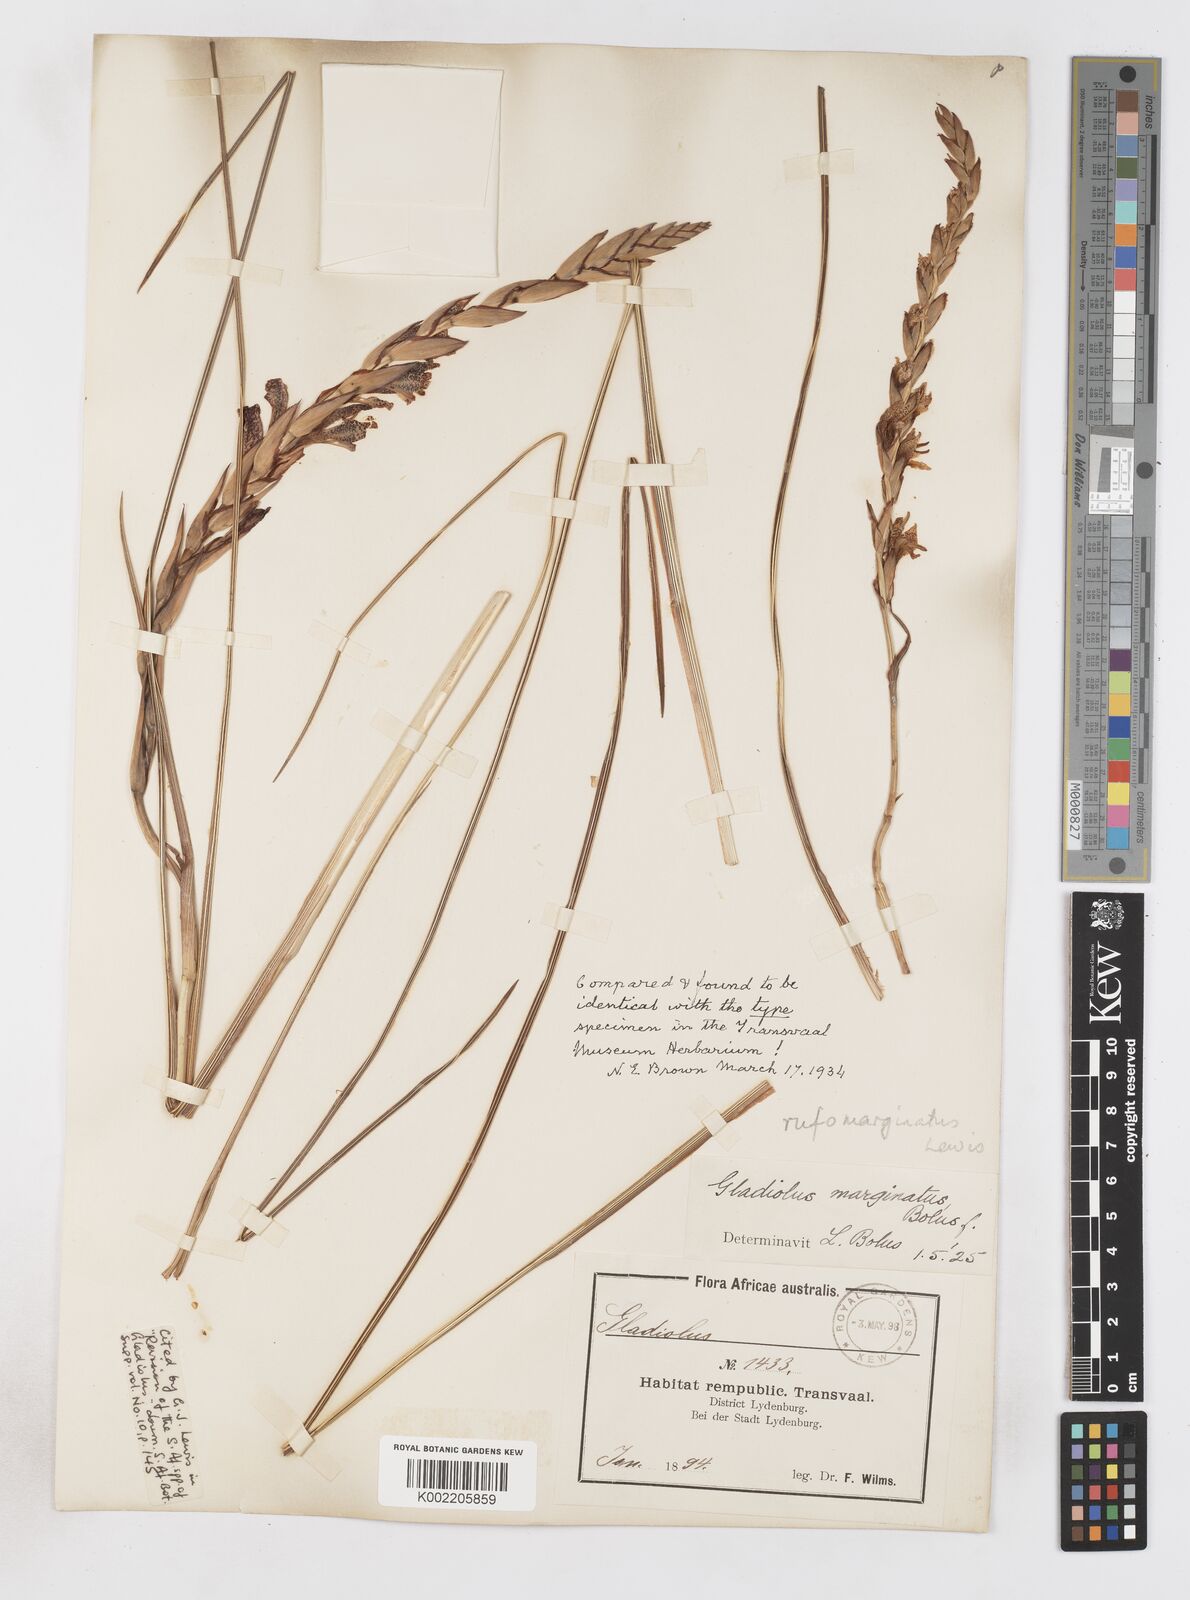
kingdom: Plantae
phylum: Tracheophyta
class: Liliopsida
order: Asparagales
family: Iridaceae
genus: Gladiolus
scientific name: Gladiolus rufomarginatus
